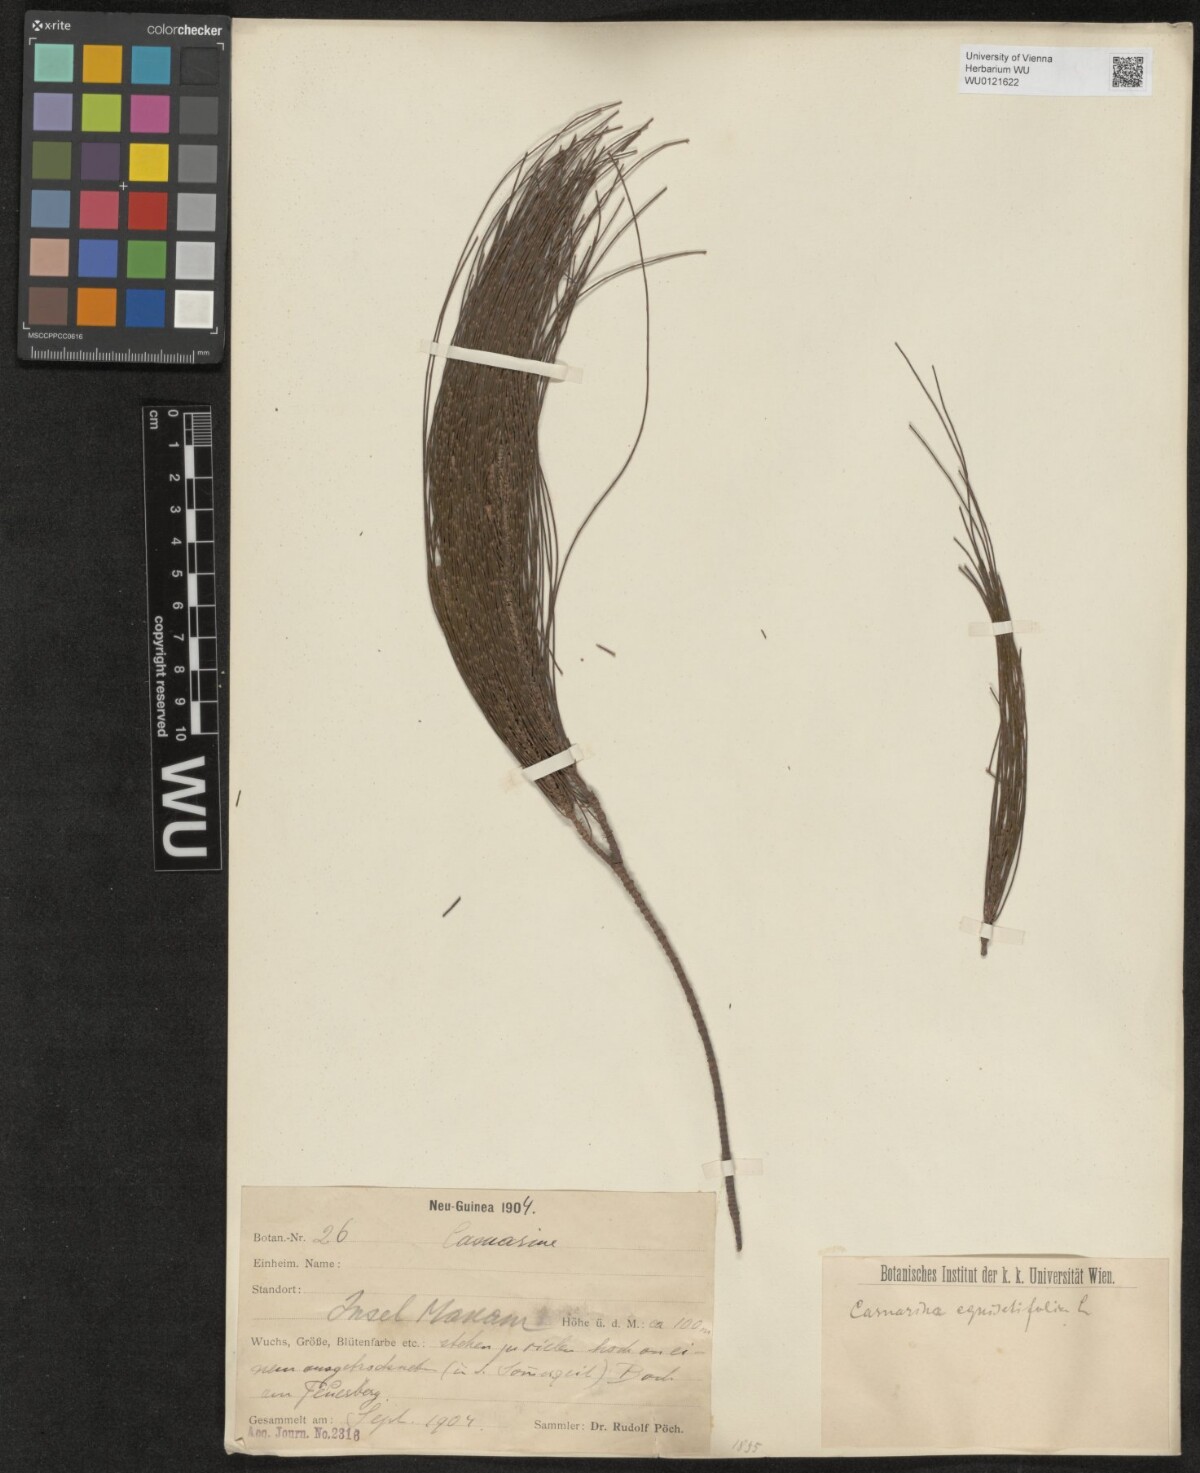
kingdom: Plantae
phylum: Tracheophyta
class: Magnoliopsida
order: Fagales
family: Casuarinaceae
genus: Casuarina
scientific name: Casuarina equisetifolia
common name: Beach sheoak
